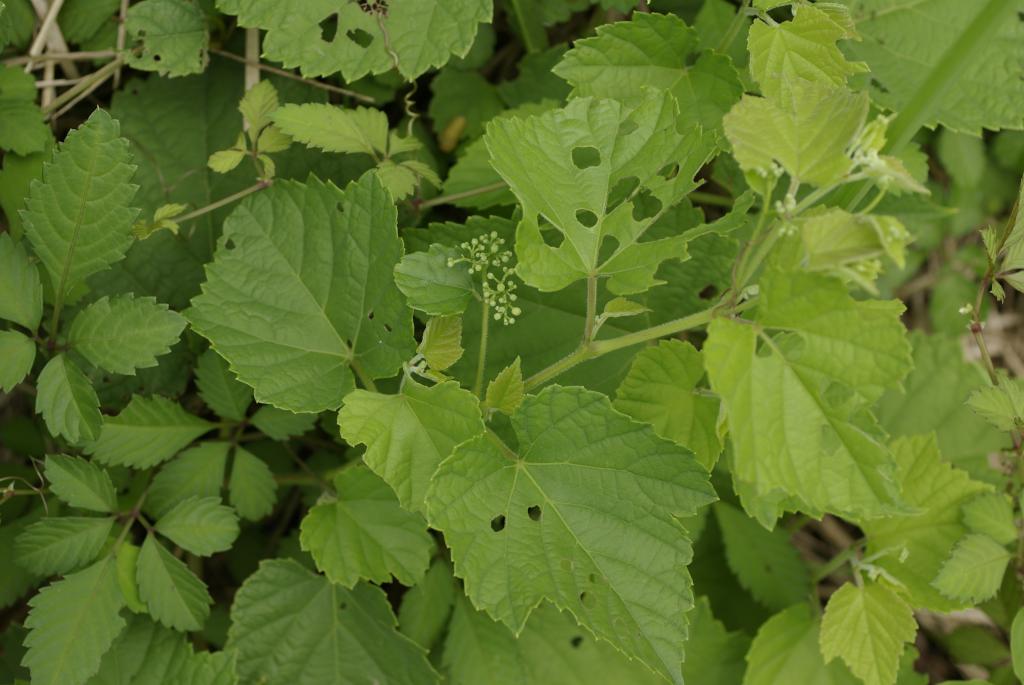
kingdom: Plantae
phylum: Tracheophyta
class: Magnoliopsida
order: Vitales
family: Vitaceae
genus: Ampelopsis
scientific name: Ampelopsis glandulosa
